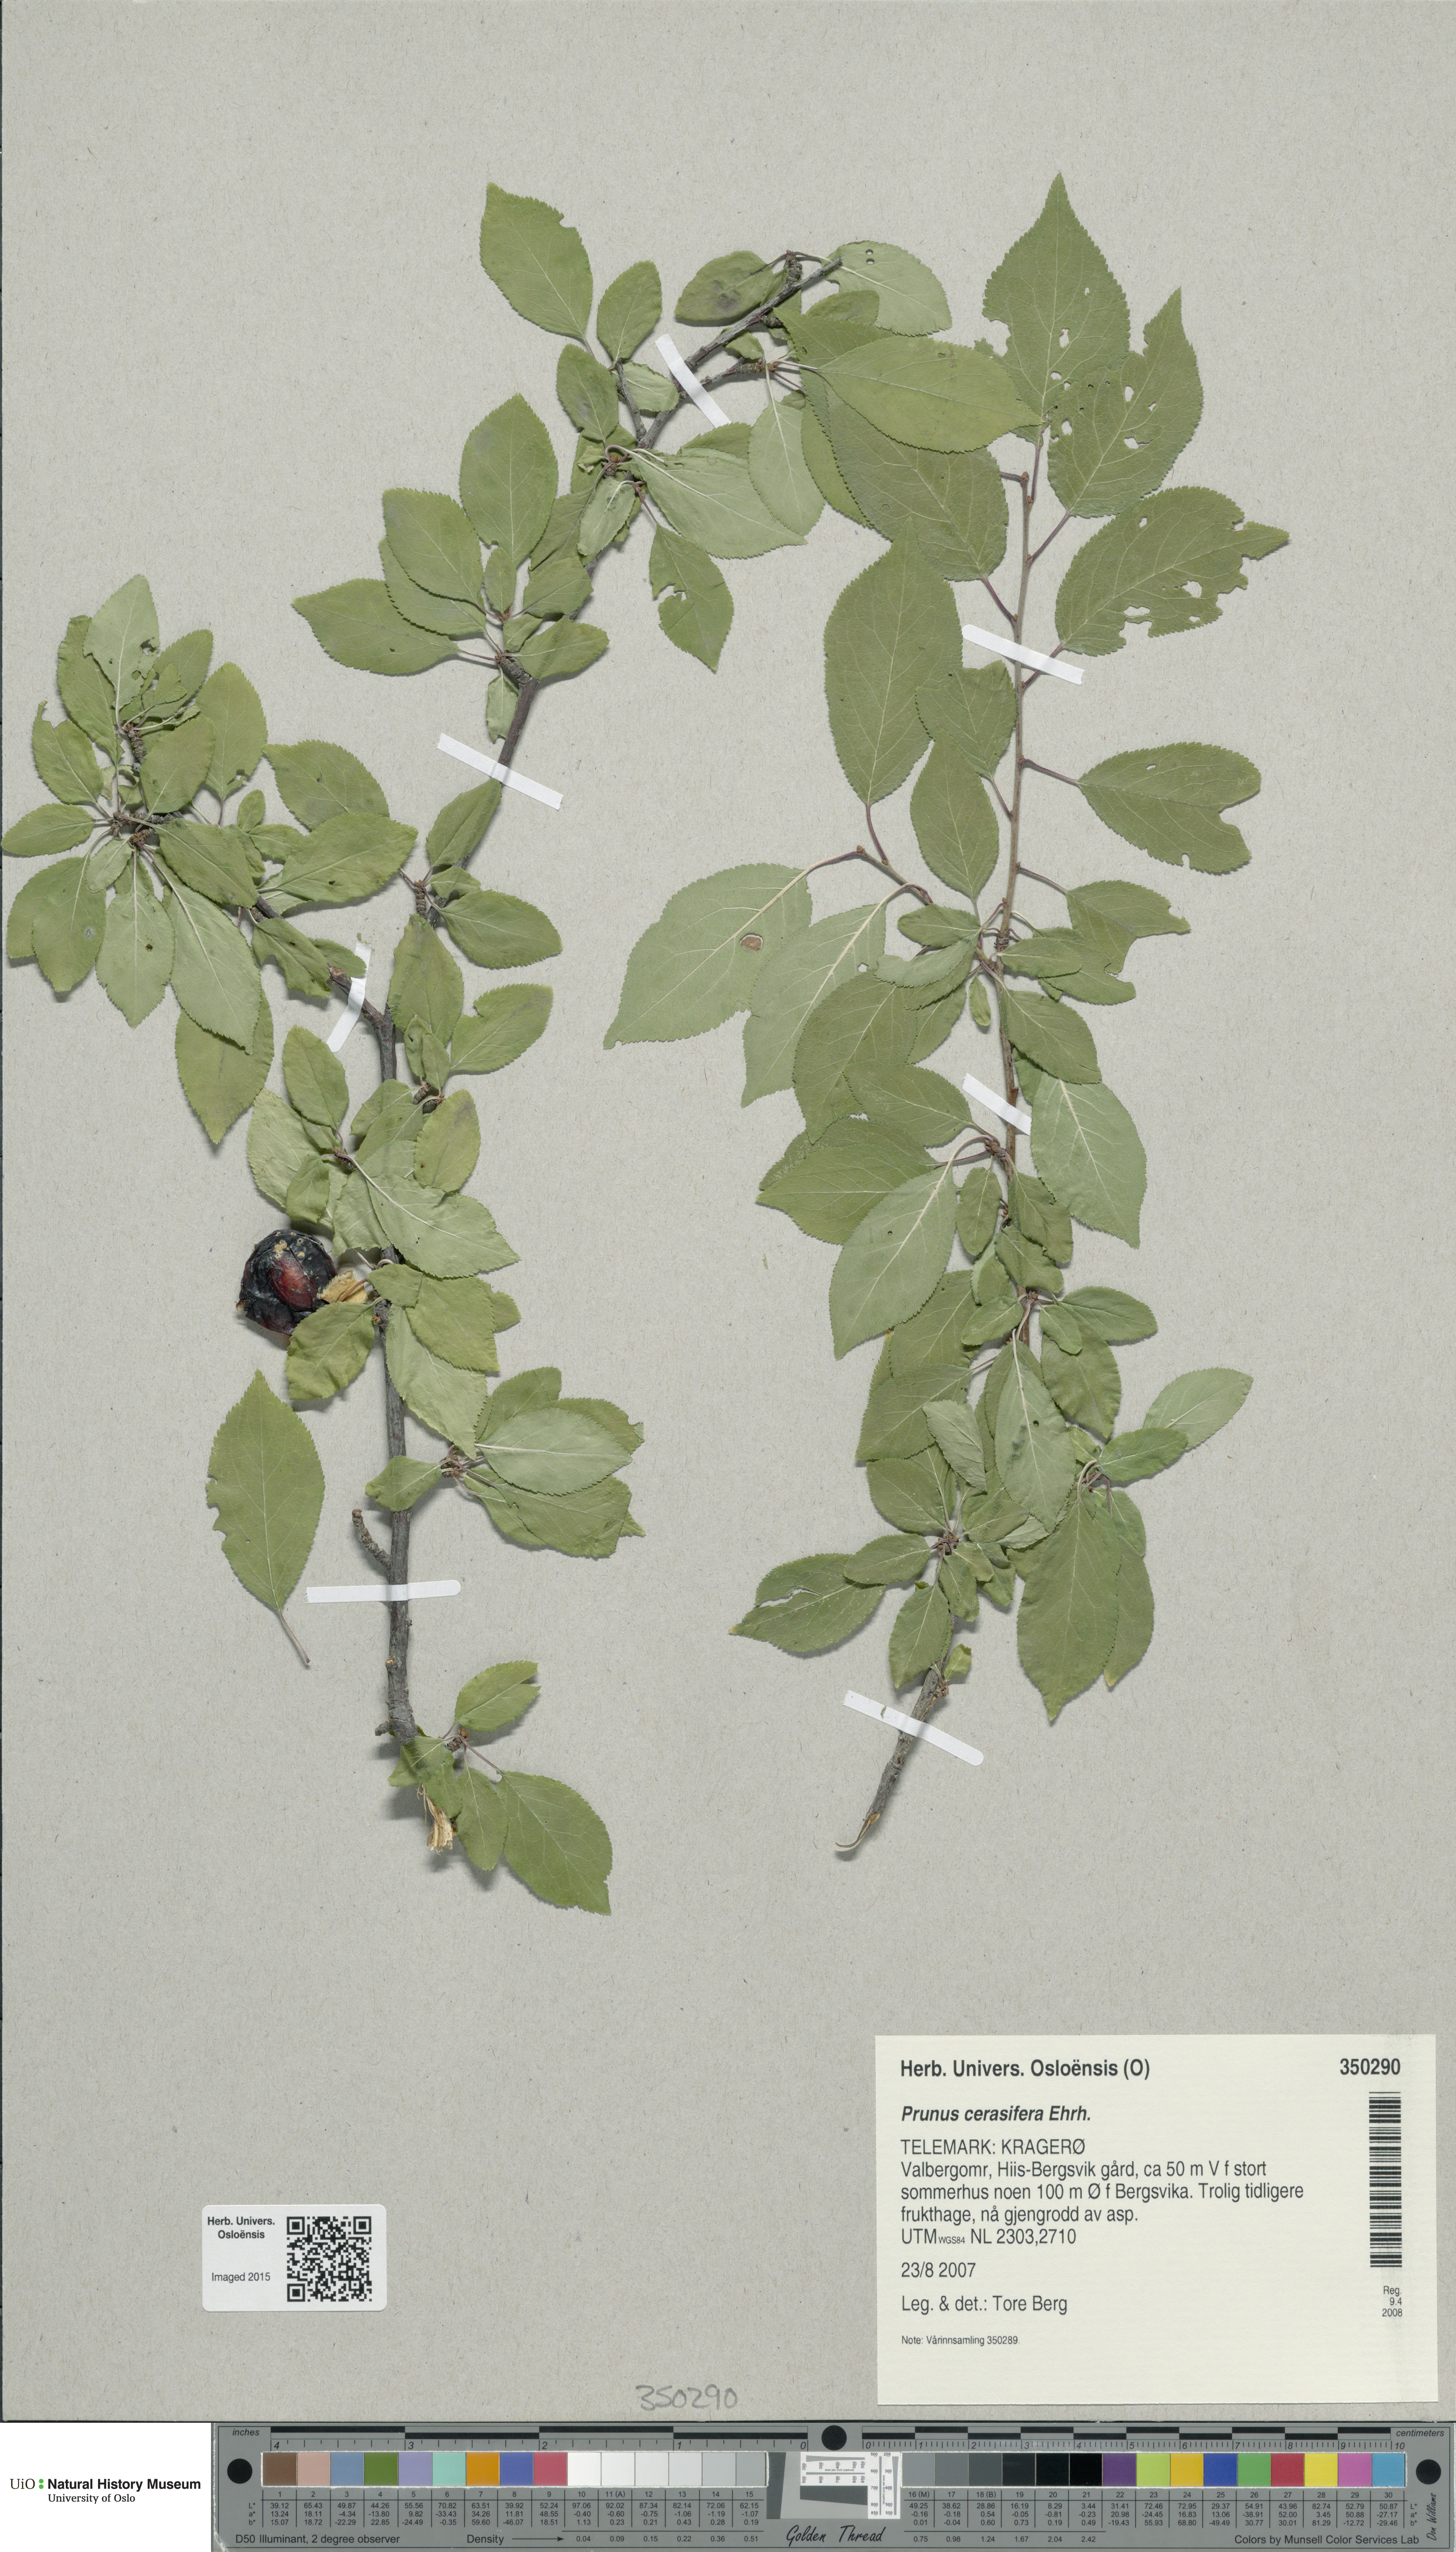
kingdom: Plantae
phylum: Tracheophyta
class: Magnoliopsida
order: Rosales
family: Rosaceae
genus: Prunus
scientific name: Prunus cerasifera
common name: Cherry plum
